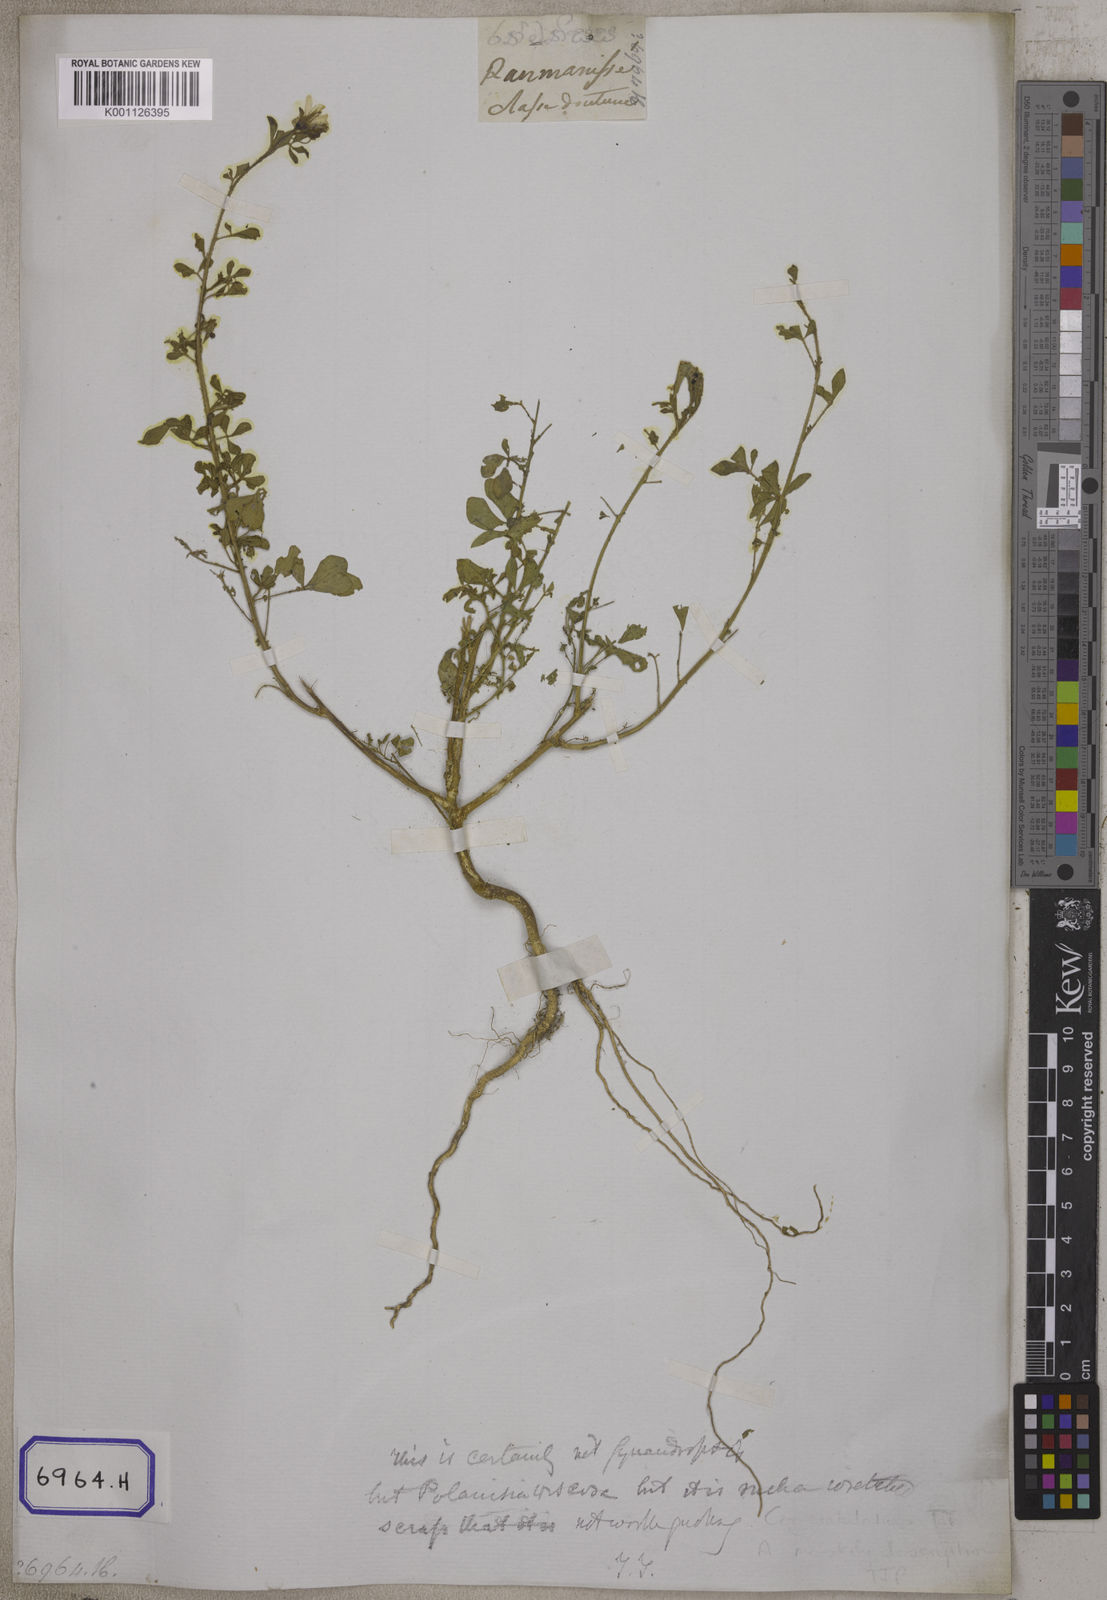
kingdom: Plantae
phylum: Tracheophyta
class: Magnoliopsida
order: Brassicales
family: Cleomaceae
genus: Gynandropsis
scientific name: Gynandropsis gynandra
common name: Spiderwisp
